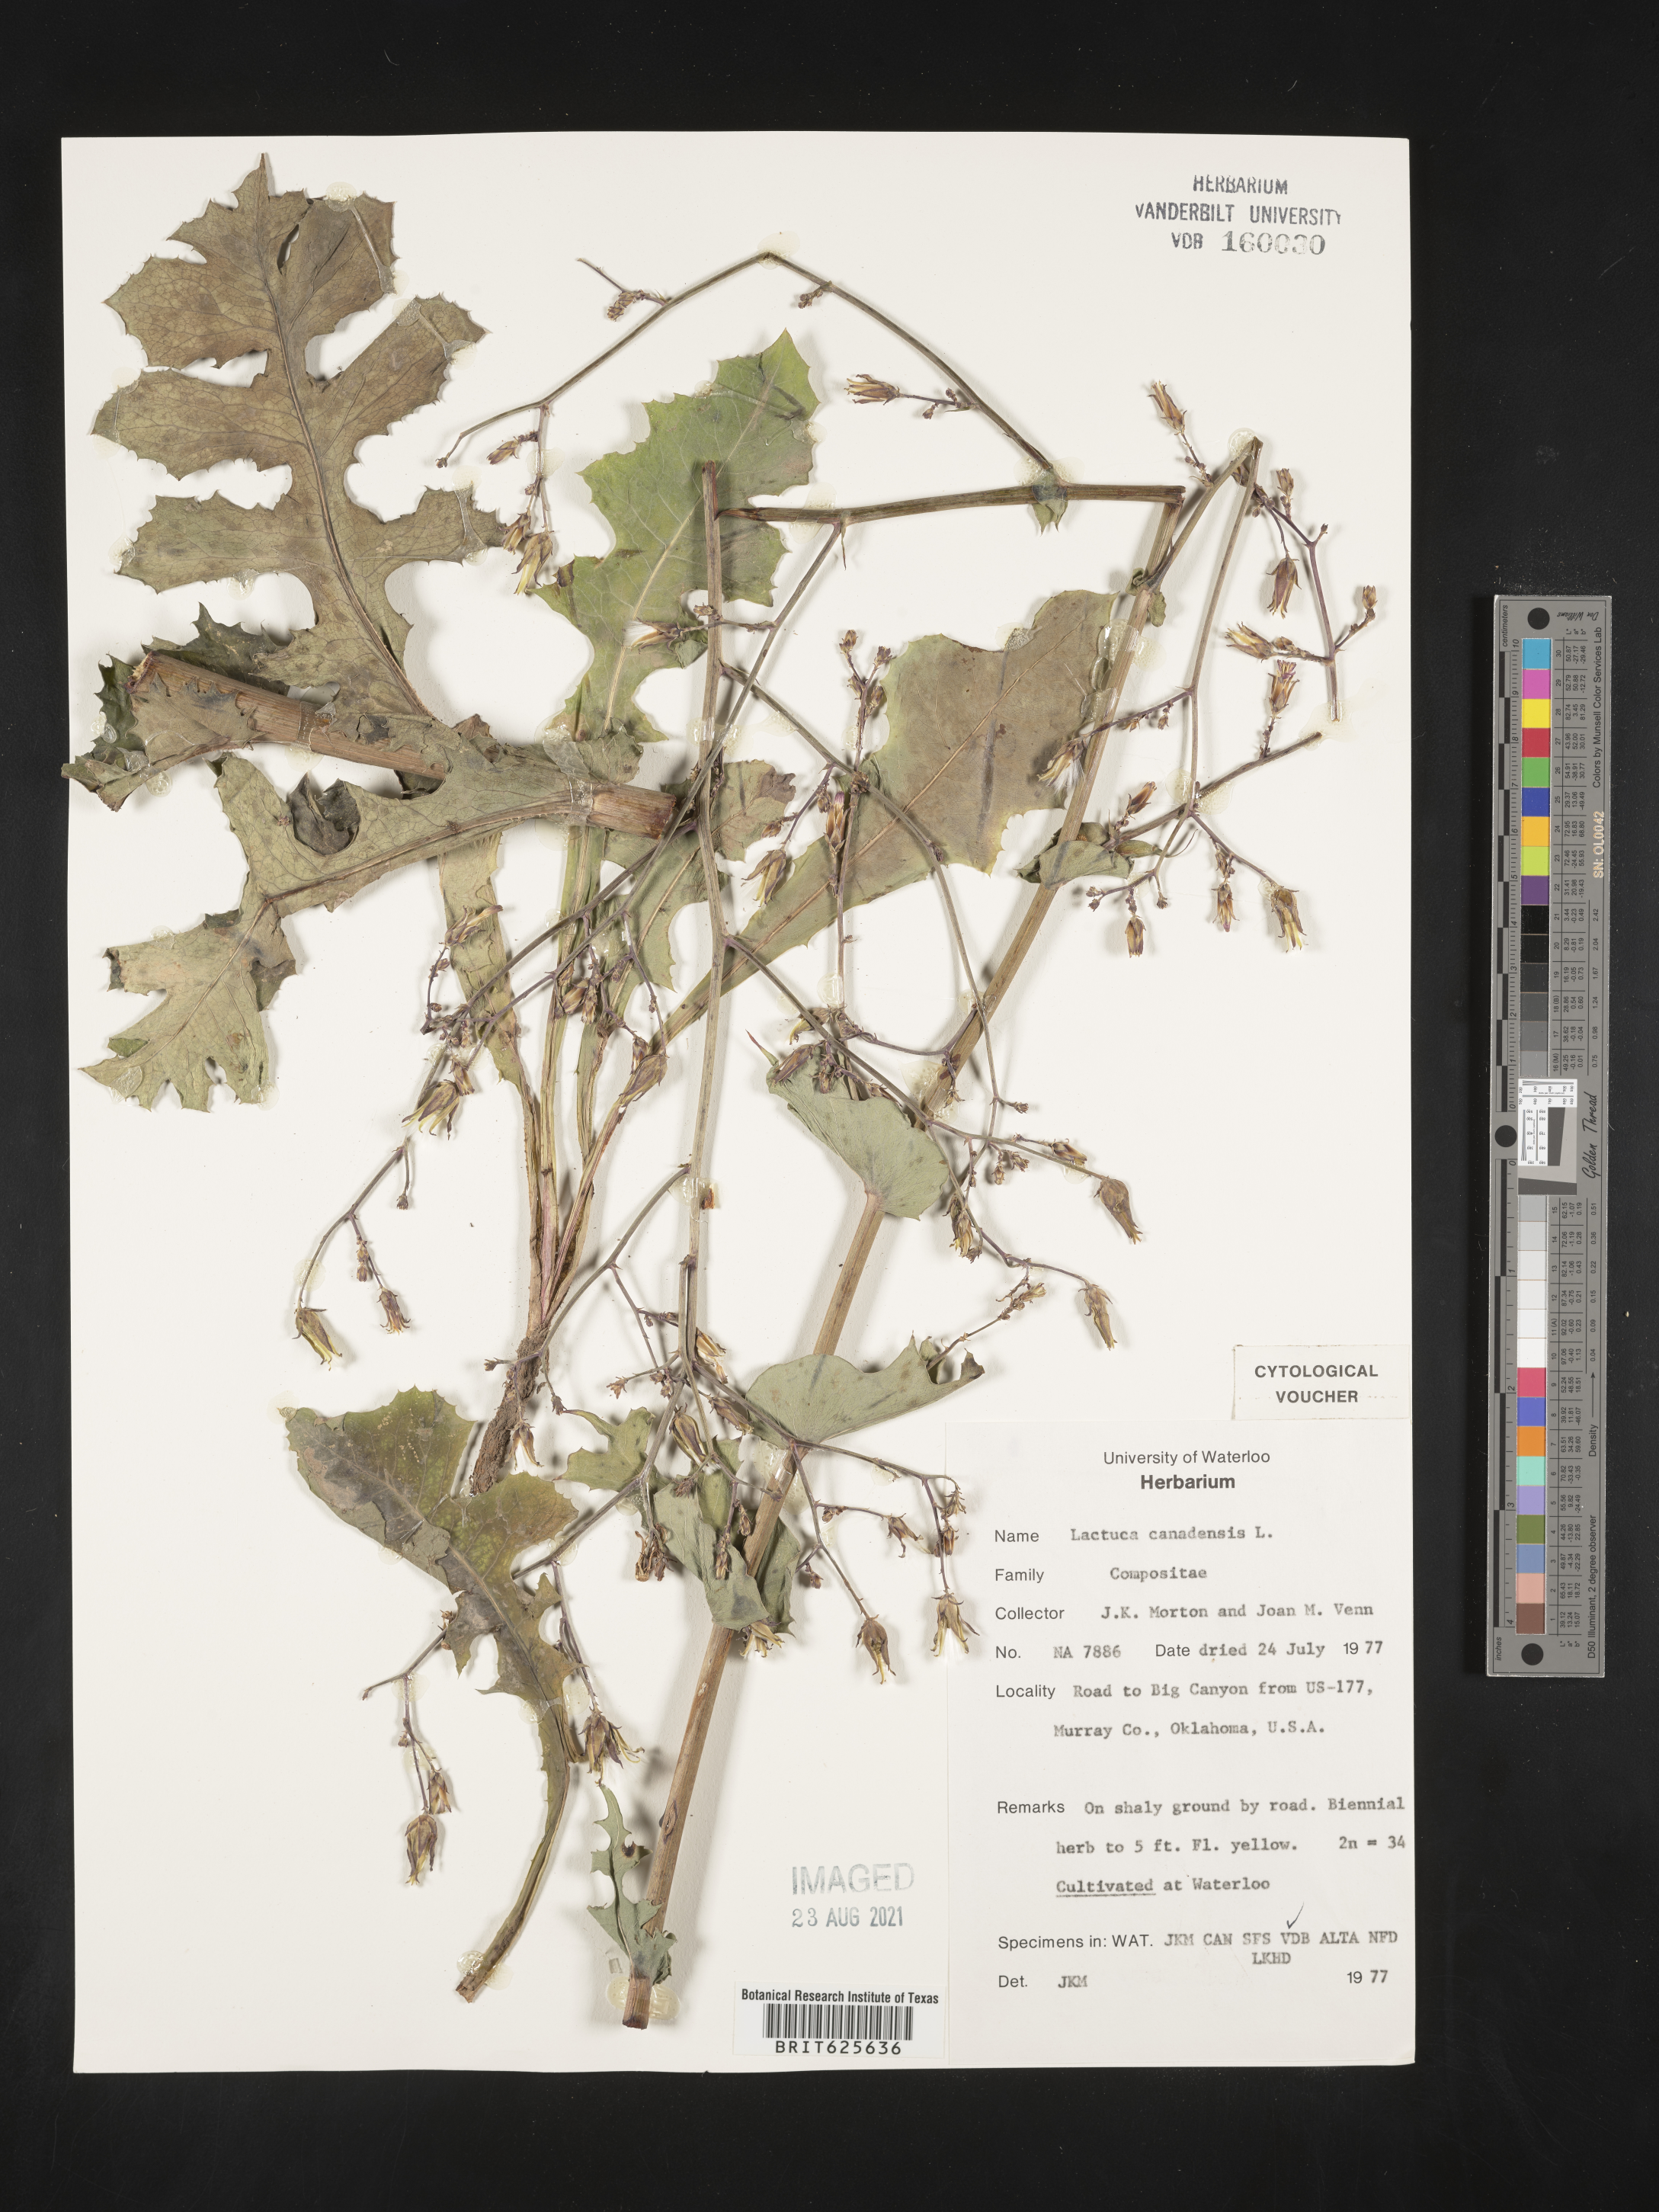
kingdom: Plantae
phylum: Tracheophyta
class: Magnoliopsida
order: Asterales
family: Asteraceae
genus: Lactuca
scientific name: Lactuca canadensis
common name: Canada lettuce
